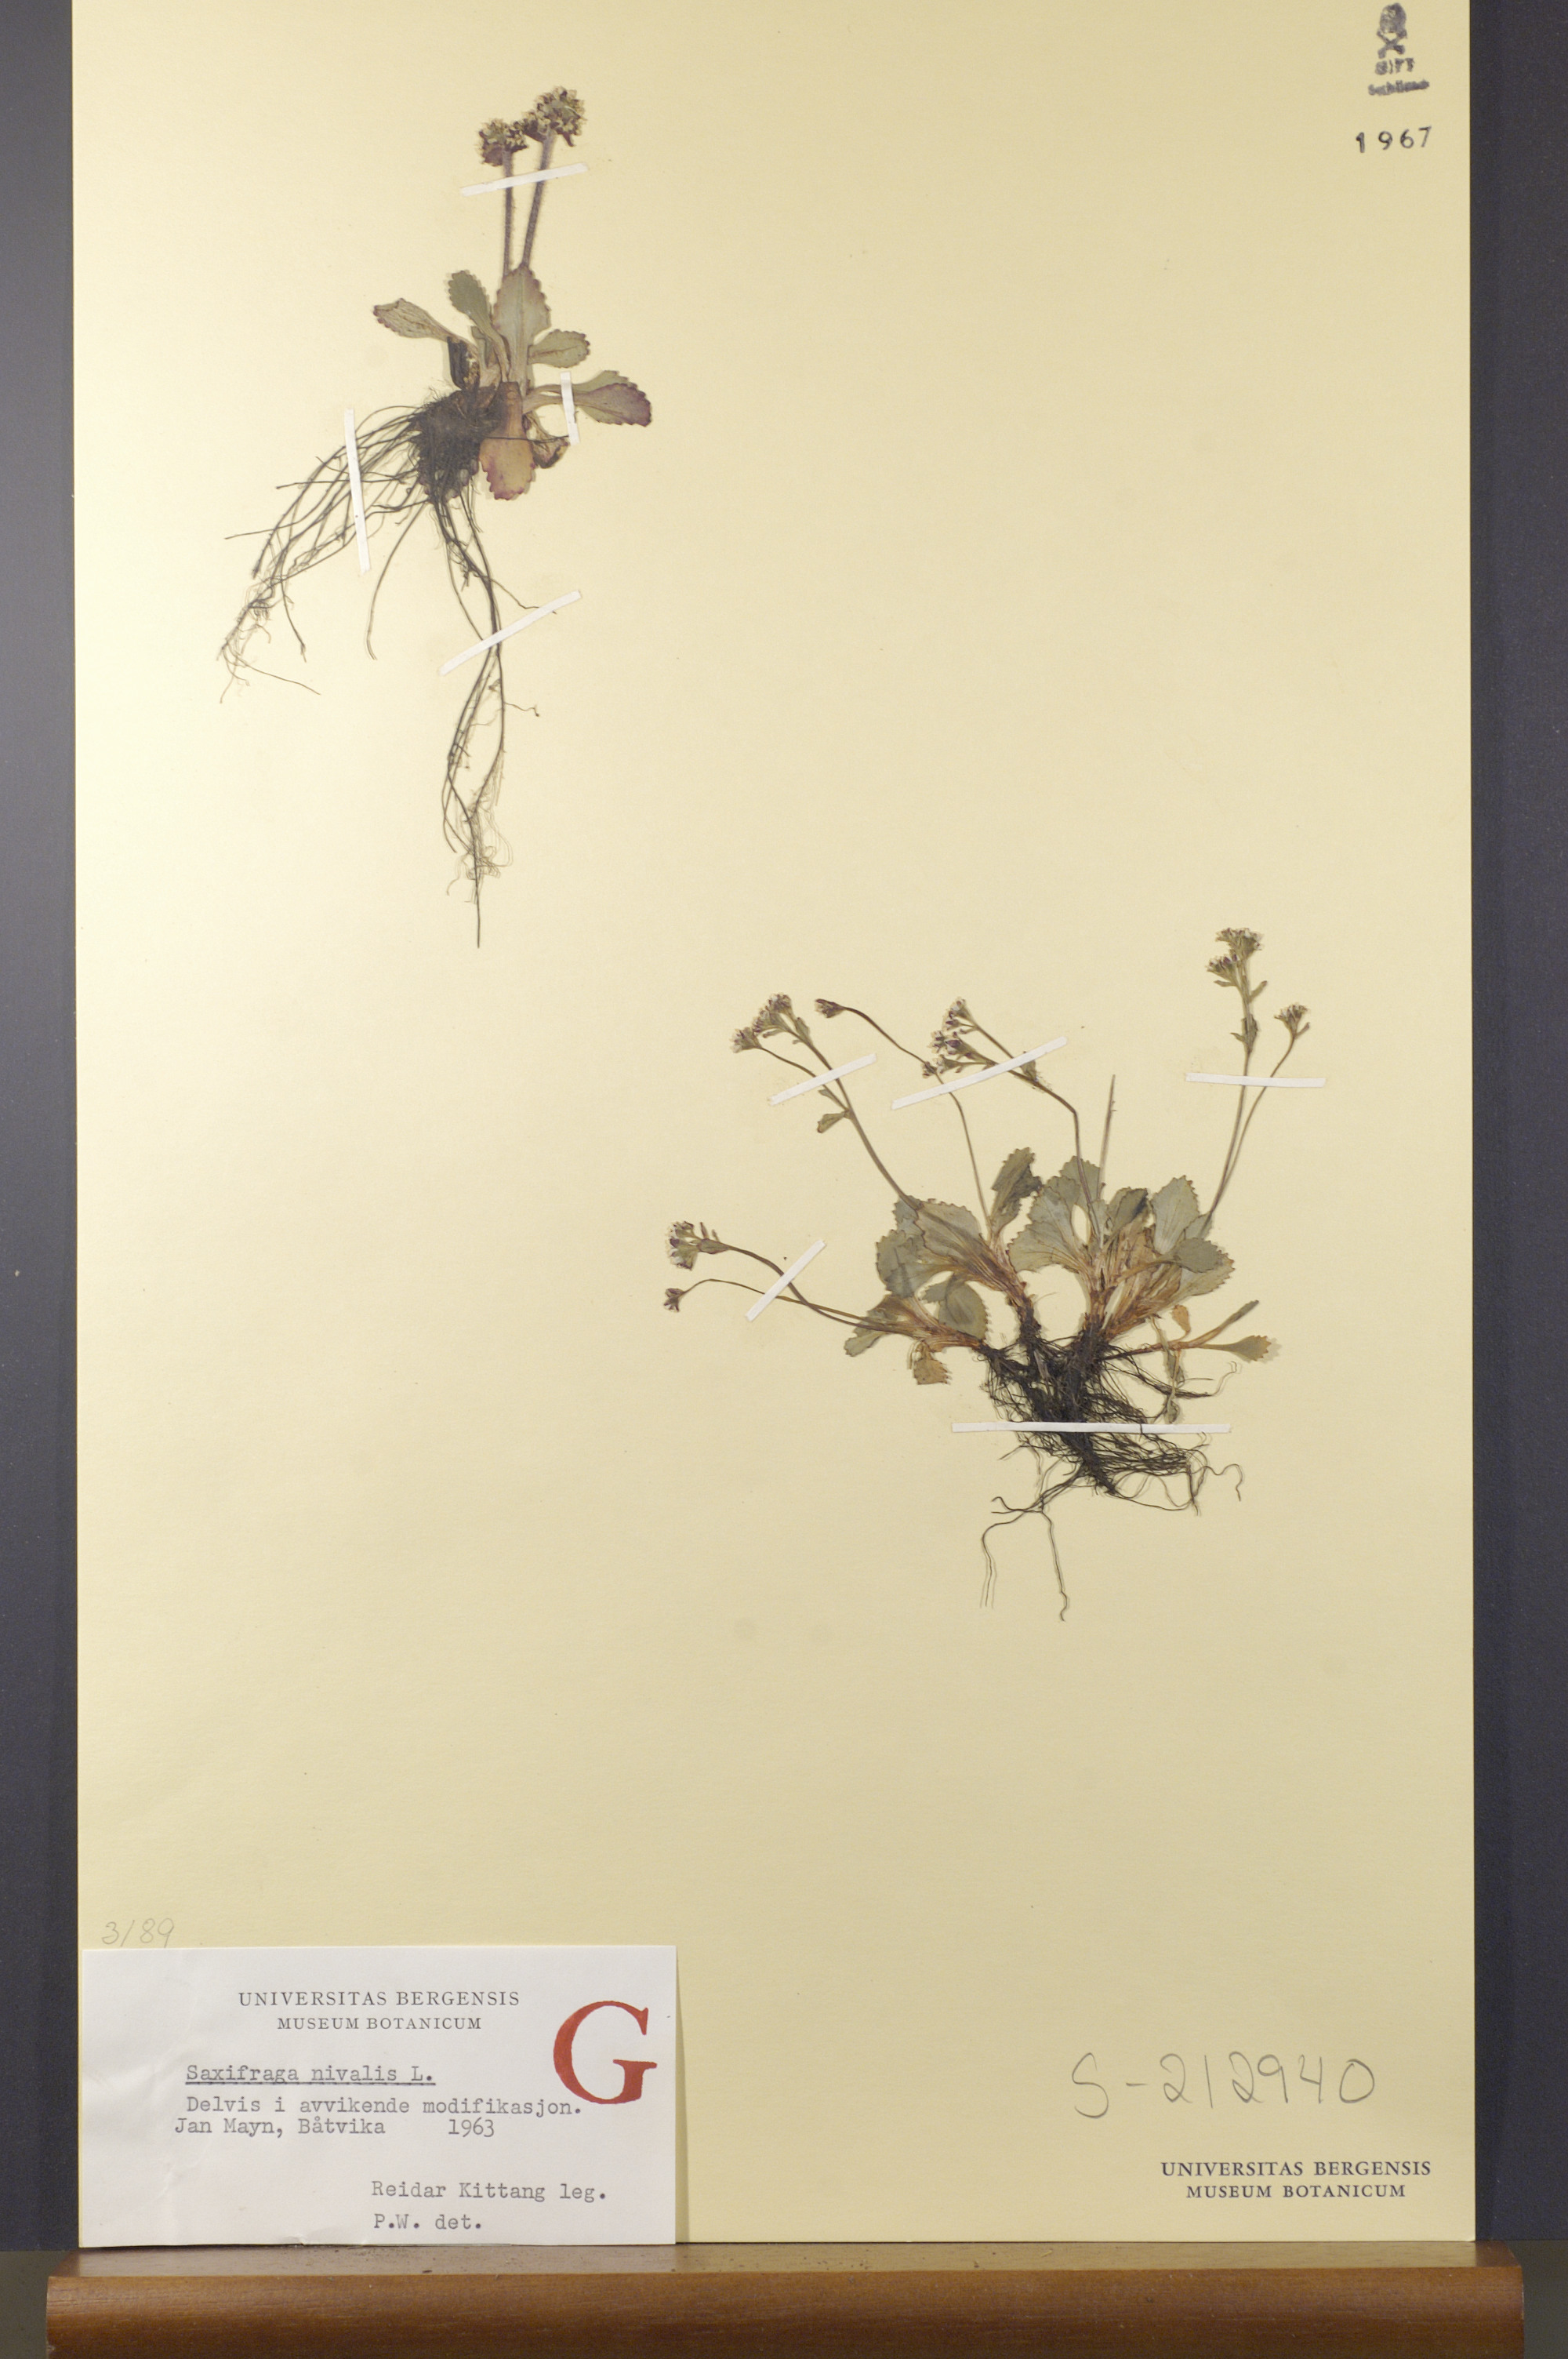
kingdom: Plantae
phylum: Tracheophyta
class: Magnoliopsida
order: Saxifragales
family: Saxifragaceae
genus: Micranthes
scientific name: Micranthes nivalis
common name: Alpine saxifrage
